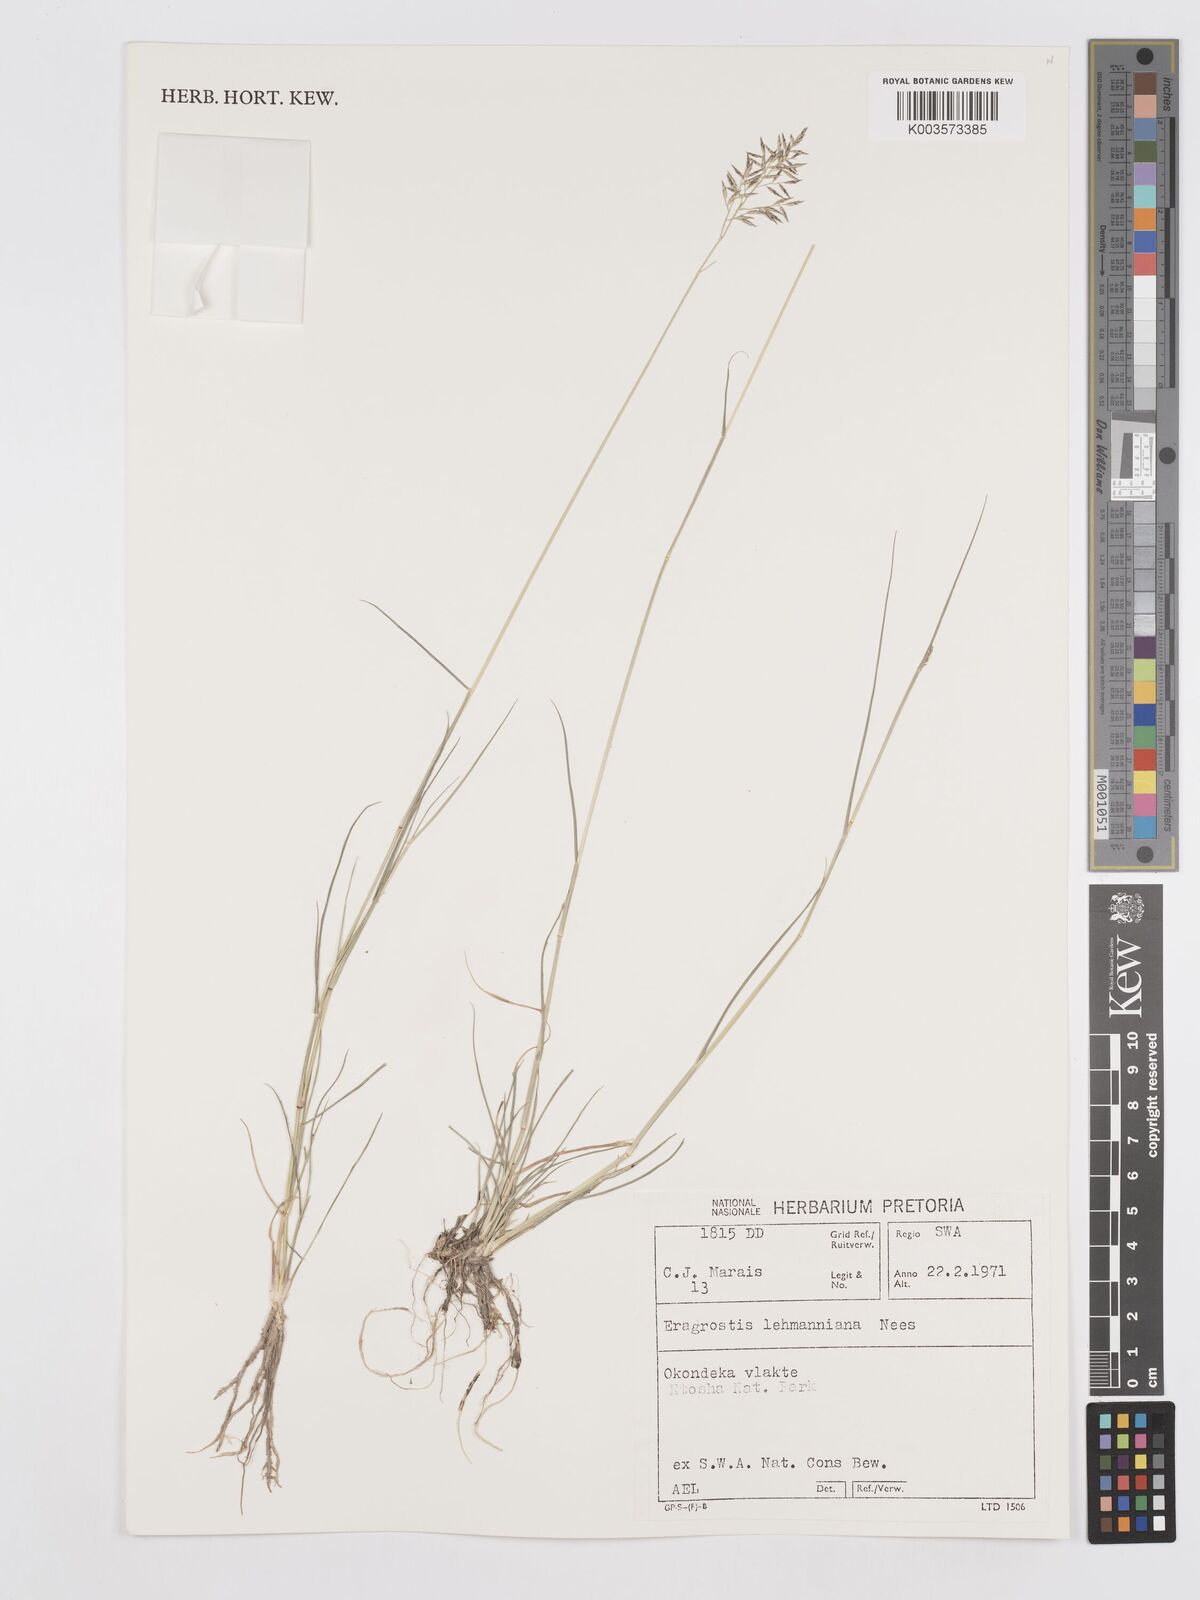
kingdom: Plantae
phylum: Tracheophyta
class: Liliopsida
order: Poales
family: Poaceae
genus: Eragrostis
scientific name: Eragrostis lehmanniana
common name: Lehmann lovegrass
